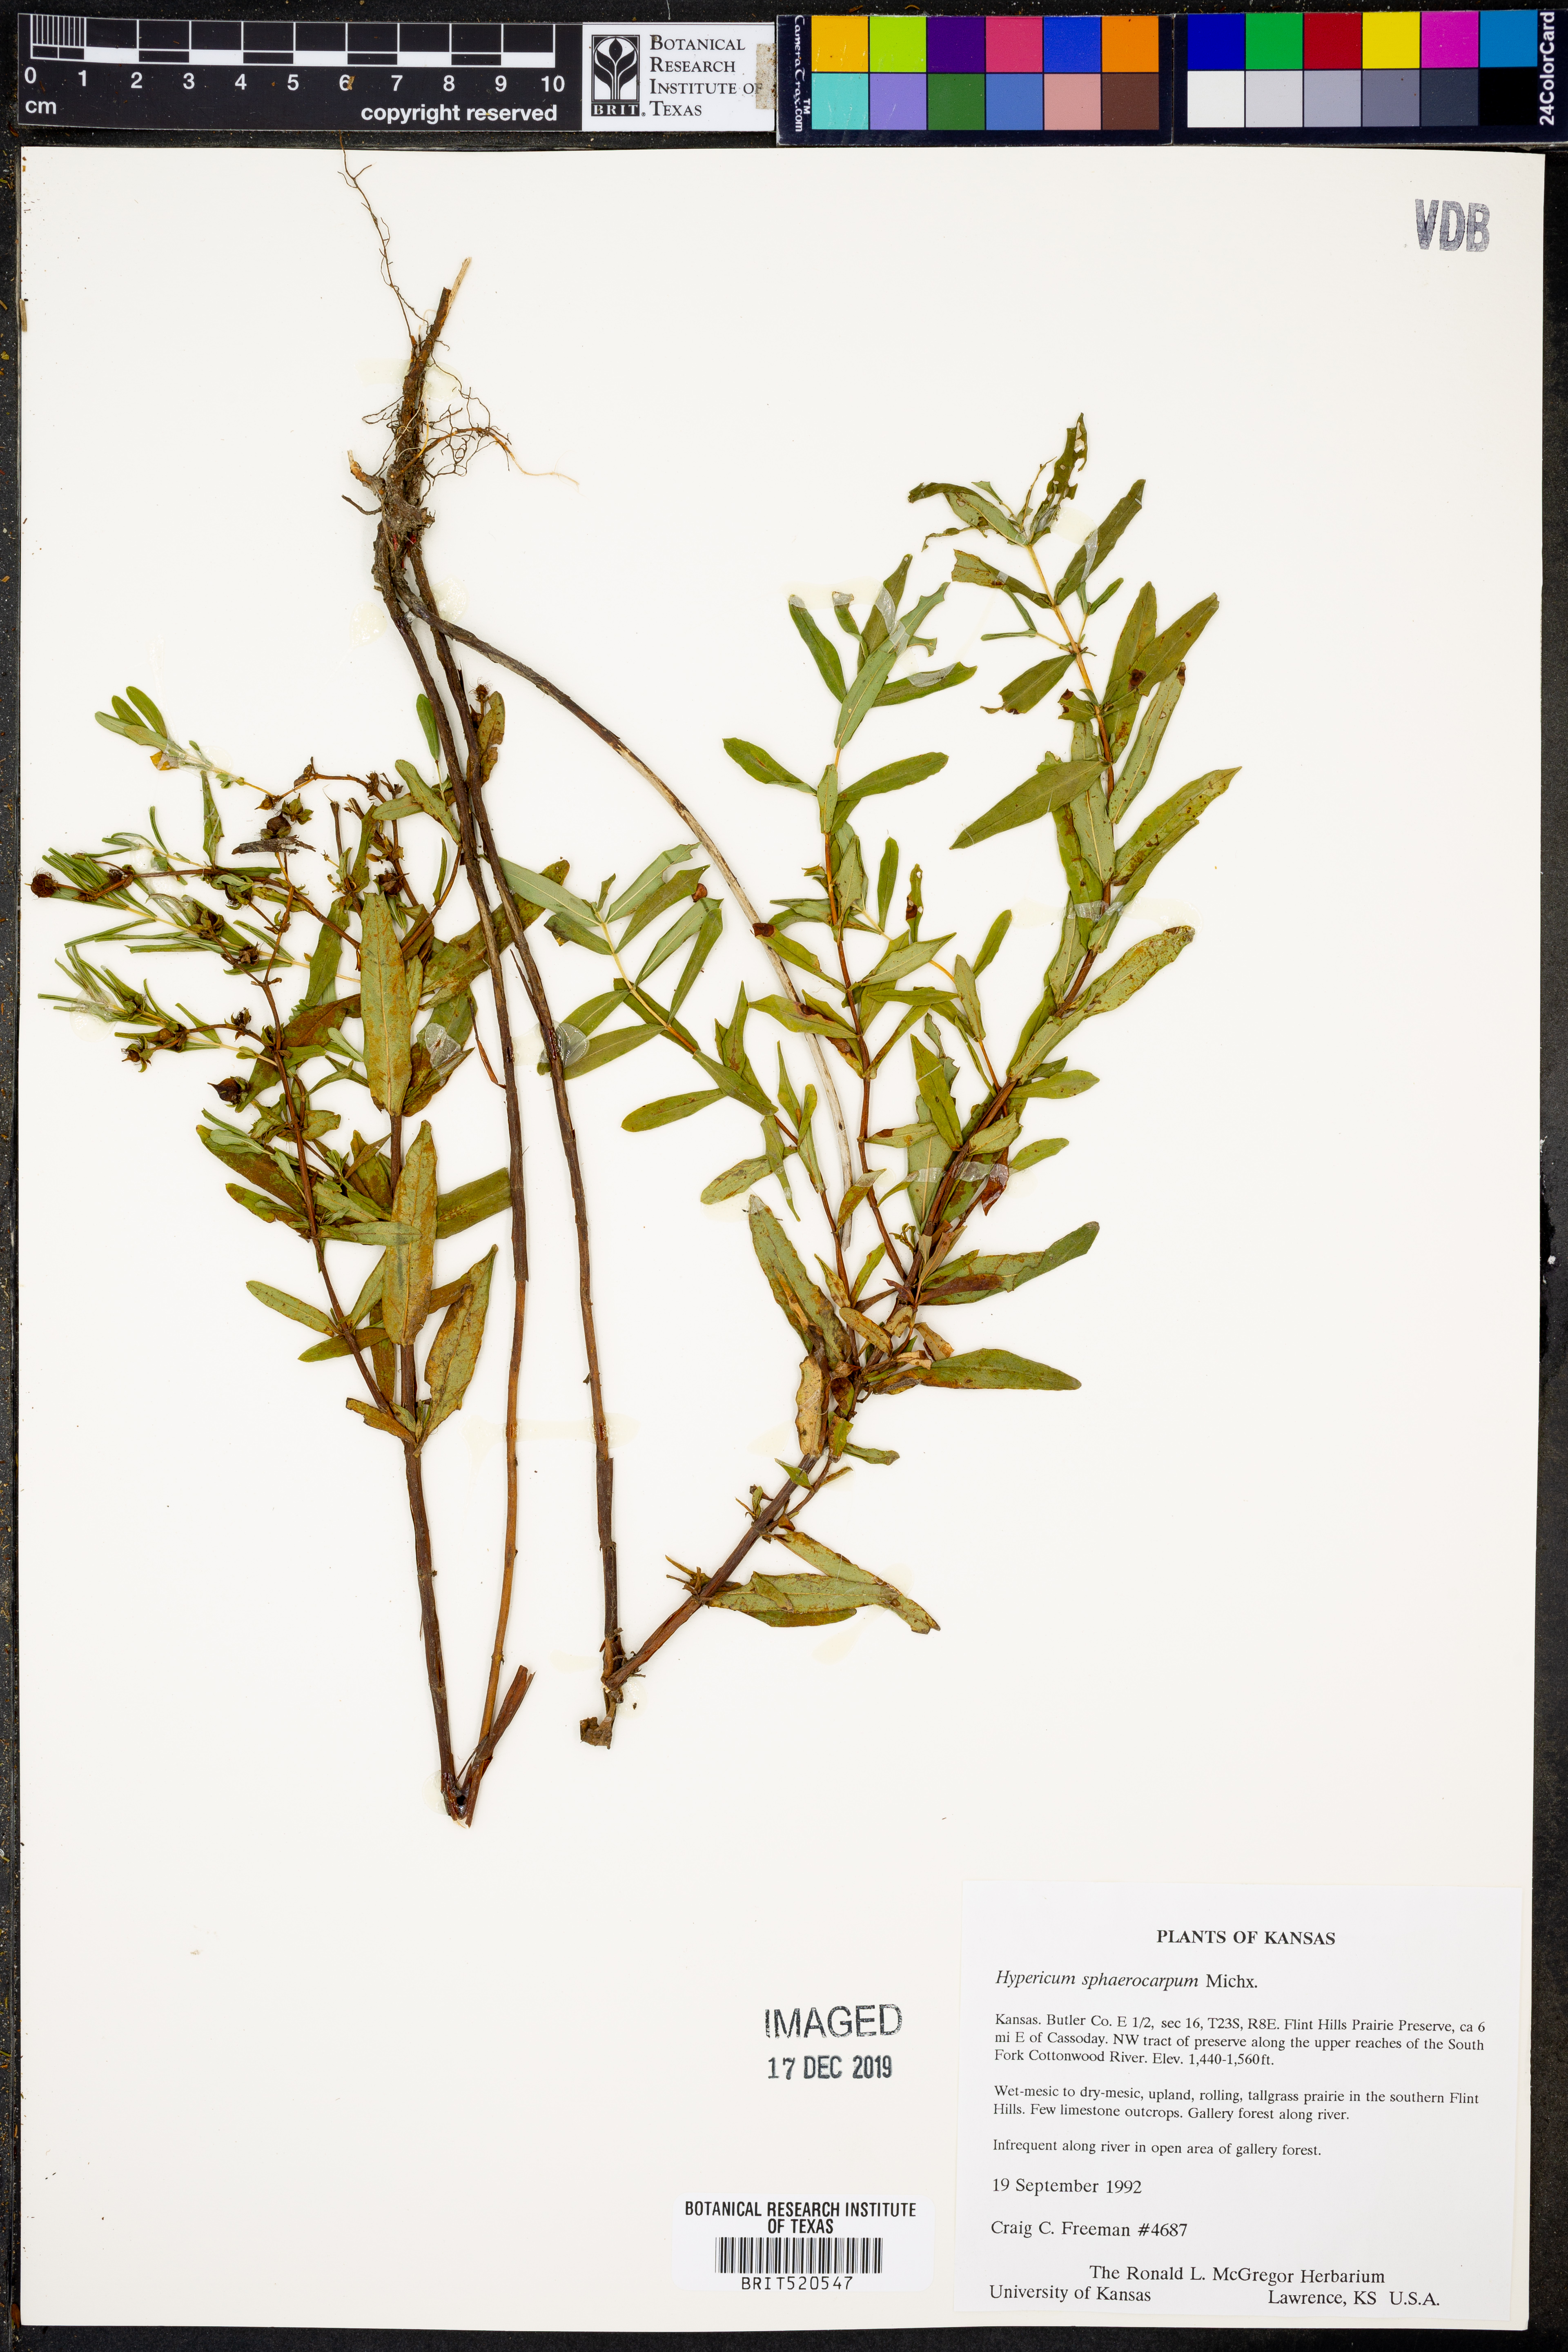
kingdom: Plantae
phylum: Tracheophyta
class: Magnoliopsida
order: Malpighiales
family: Hypericaceae
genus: Hypericum
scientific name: Hypericum sphaerocarpum
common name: Round-fruited st. john's-wort
